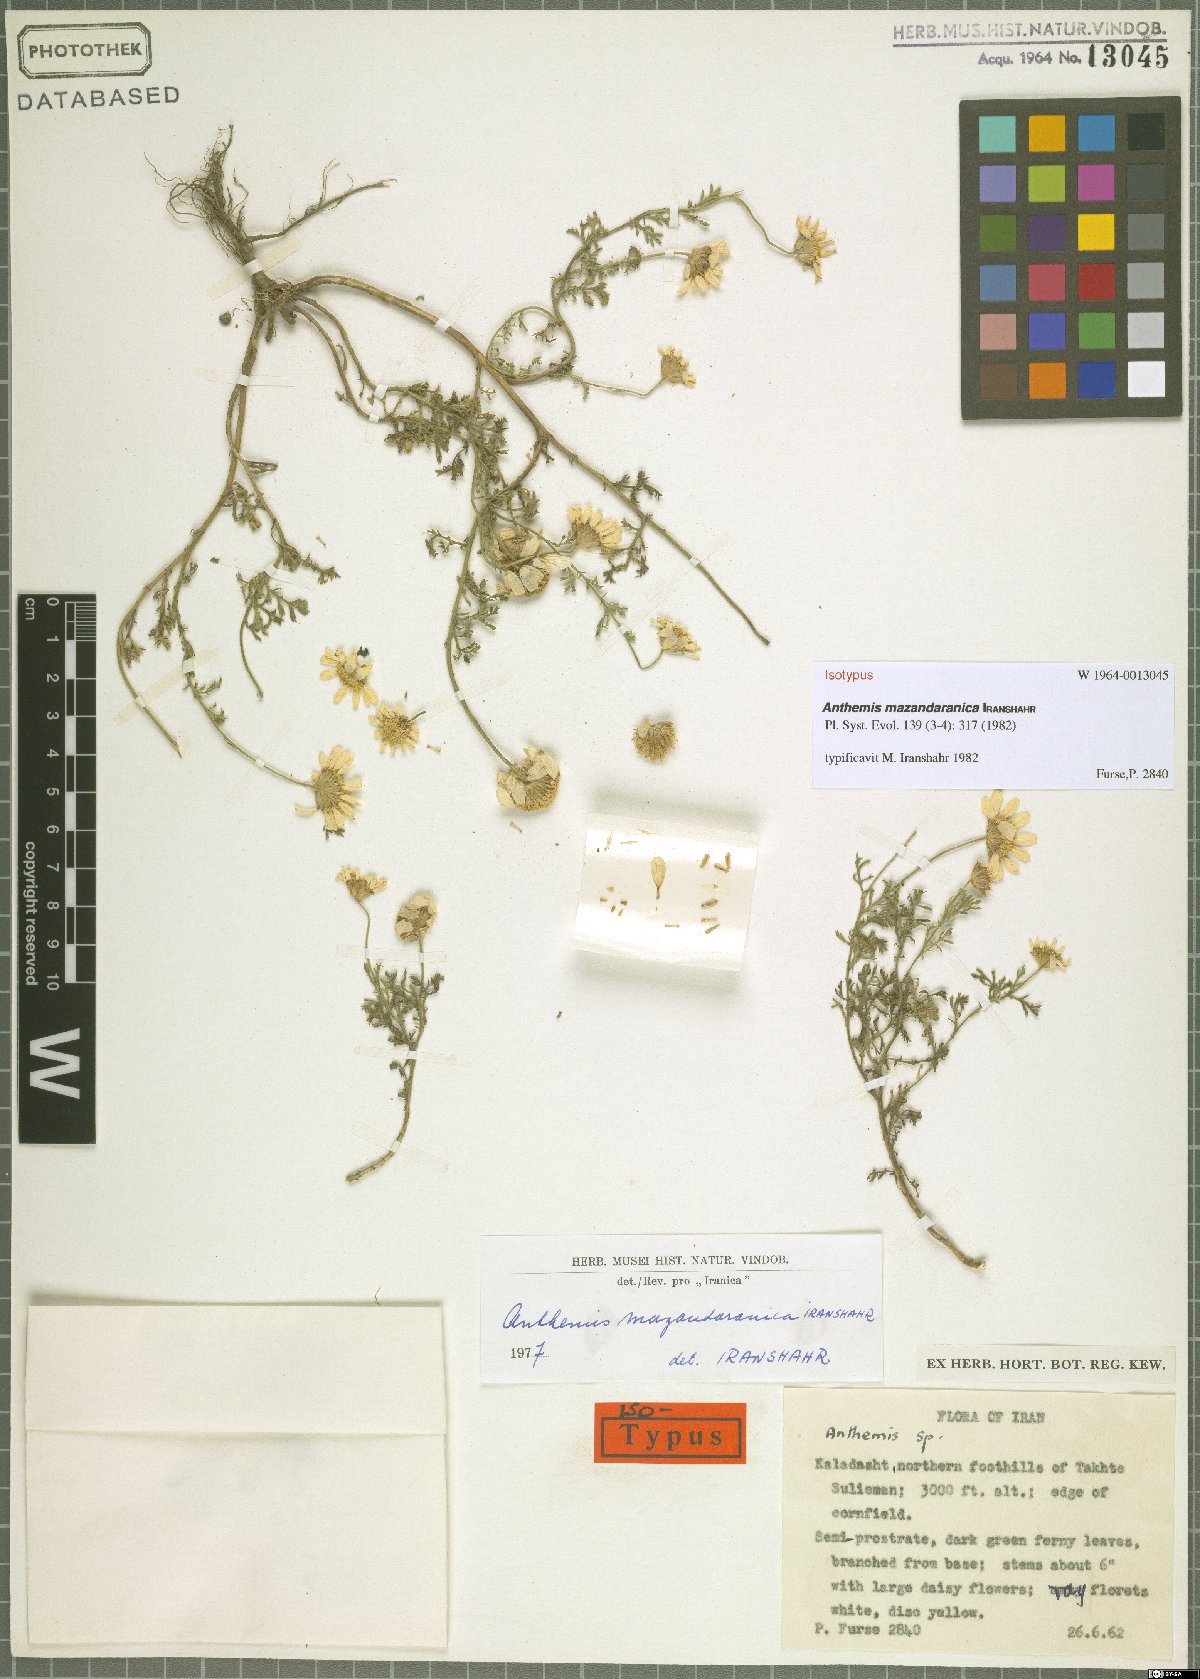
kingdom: Plantae
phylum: Tracheophyta
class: Magnoliopsida
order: Asterales
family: Asteraceae
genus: Cota
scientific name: Cota mazandaranica
